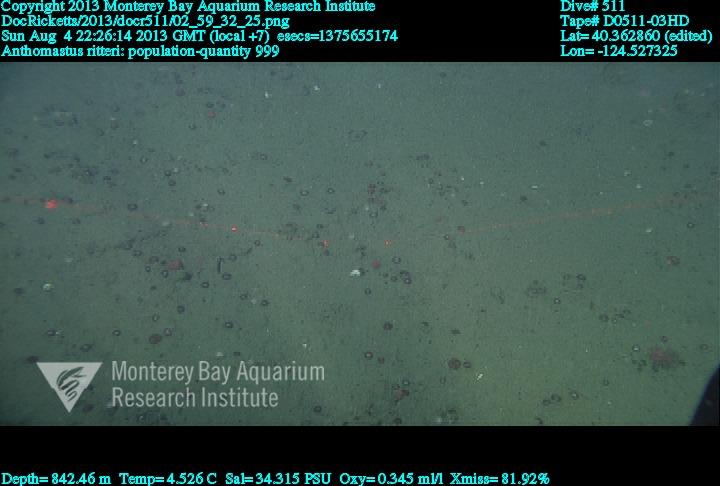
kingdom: Animalia
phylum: Cnidaria
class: Anthozoa
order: Scleralcyonacea
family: Coralliidae
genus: Heteropolypus
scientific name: Heteropolypus ritteri
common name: Ritter's soft coral
